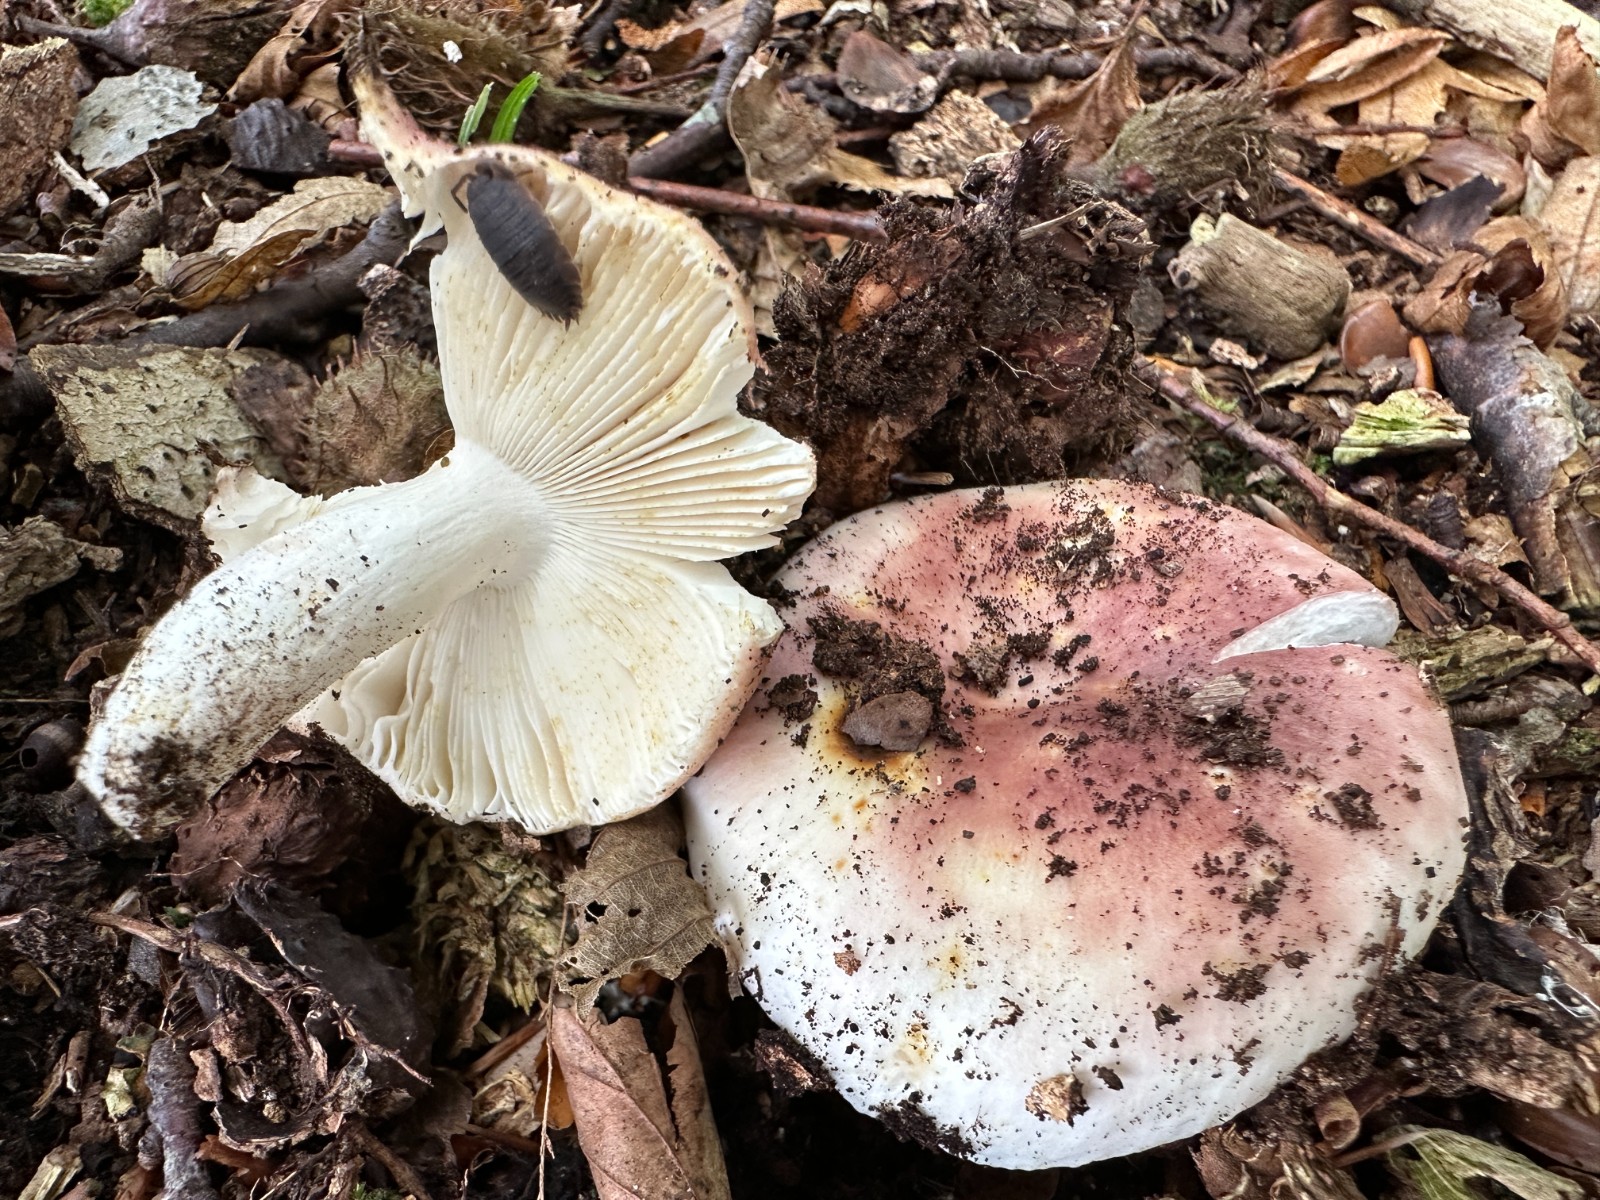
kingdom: Fungi
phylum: Basidiomycota
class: Agaricomycetes
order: Russulales
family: Russulaceae
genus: Russula
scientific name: Russula vesca
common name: spiselig skørhat
